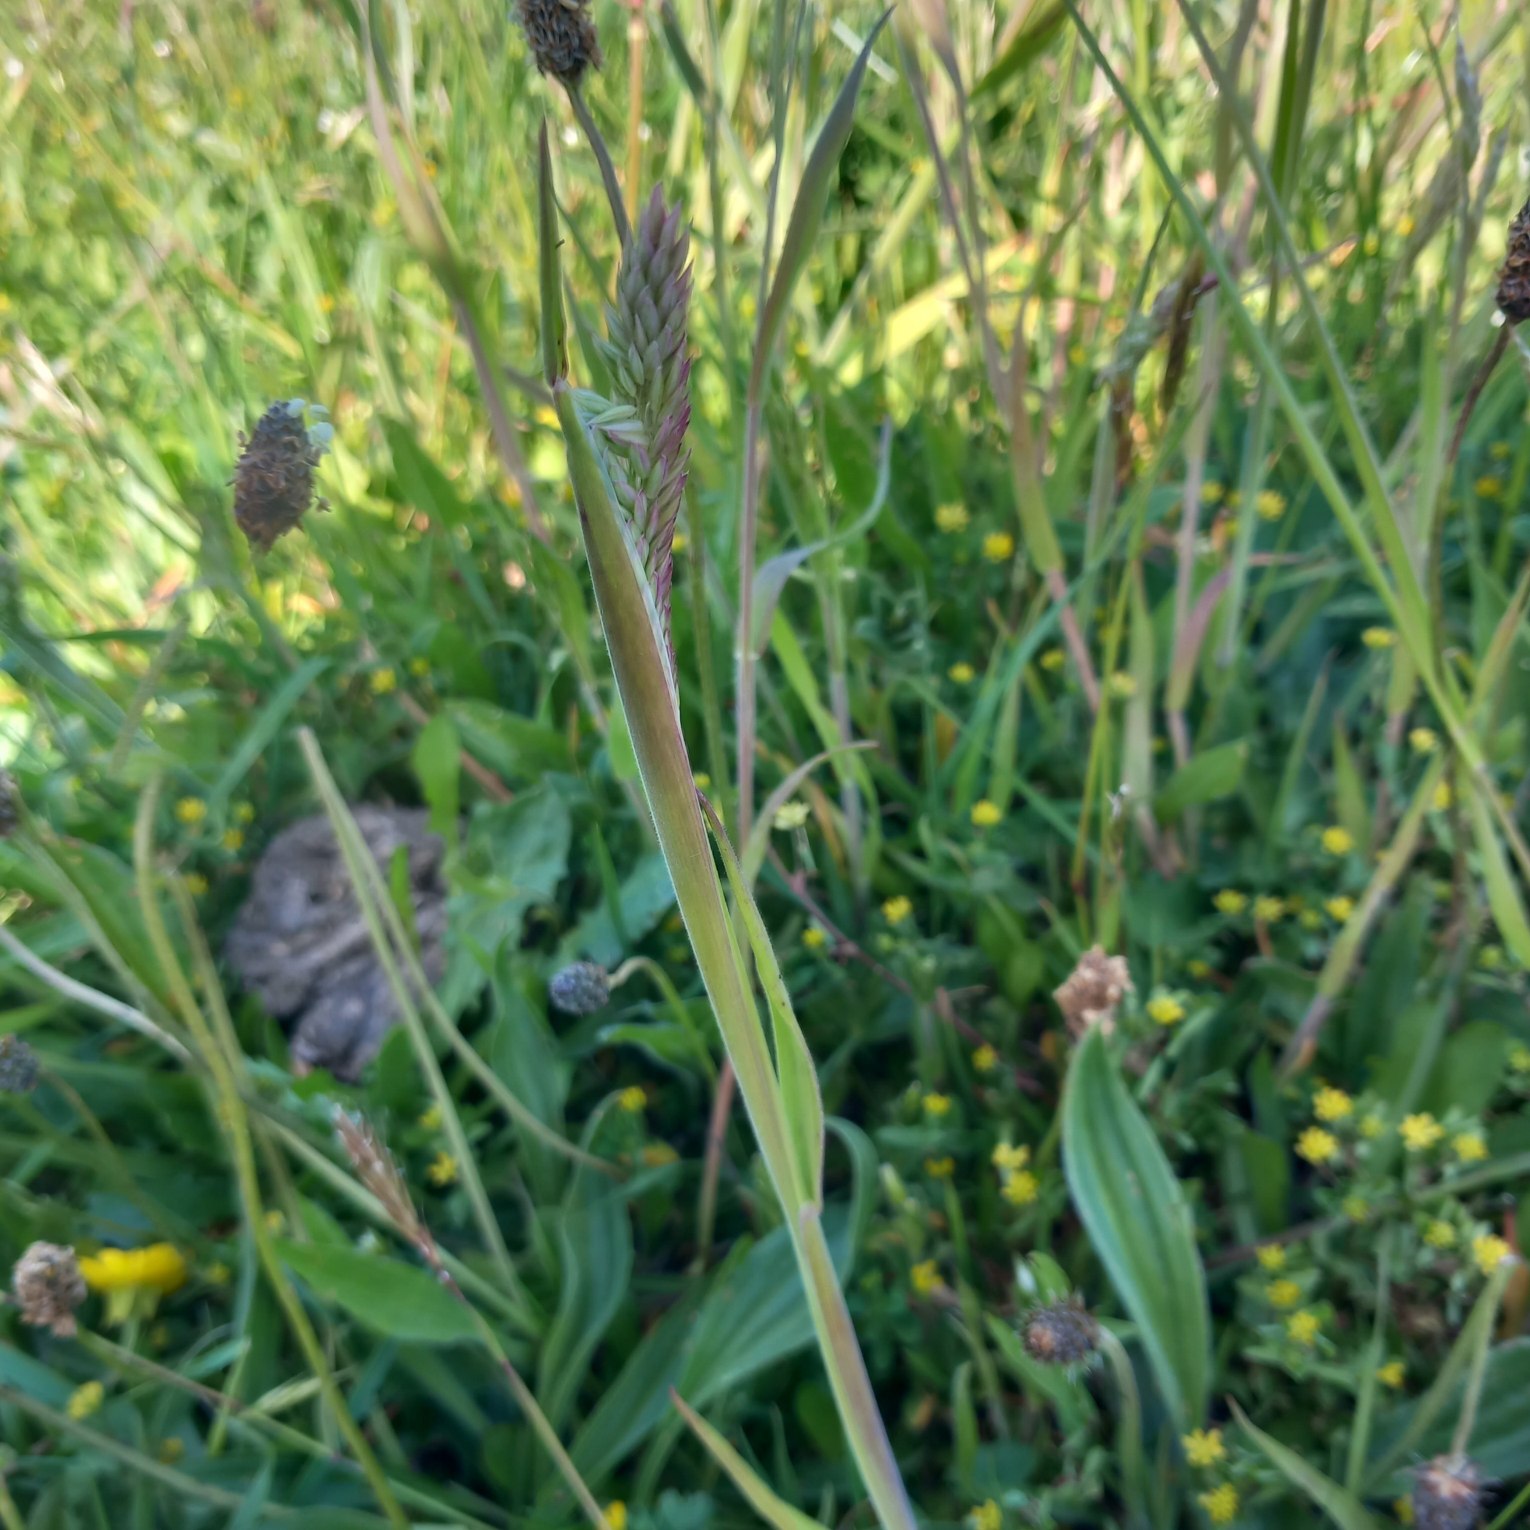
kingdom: Plantae
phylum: Tracheophyta
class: Liliopsida
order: Poales
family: Poaceae
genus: Holcus
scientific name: Holcus lanatus
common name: Fløjlsgræs
